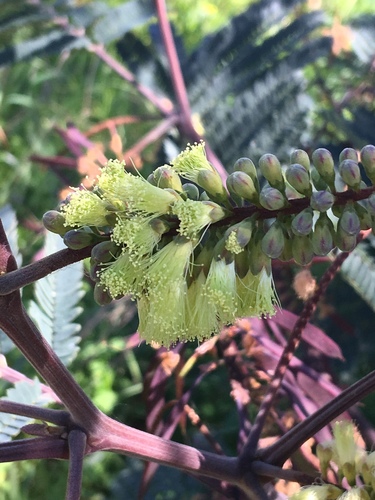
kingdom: Plantae
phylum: Tracheophyta
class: Magnoliopsida
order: Fabales
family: Fabaceae
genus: Paraserianthes
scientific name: Paraserianthes lophantha
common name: Plume albizia
